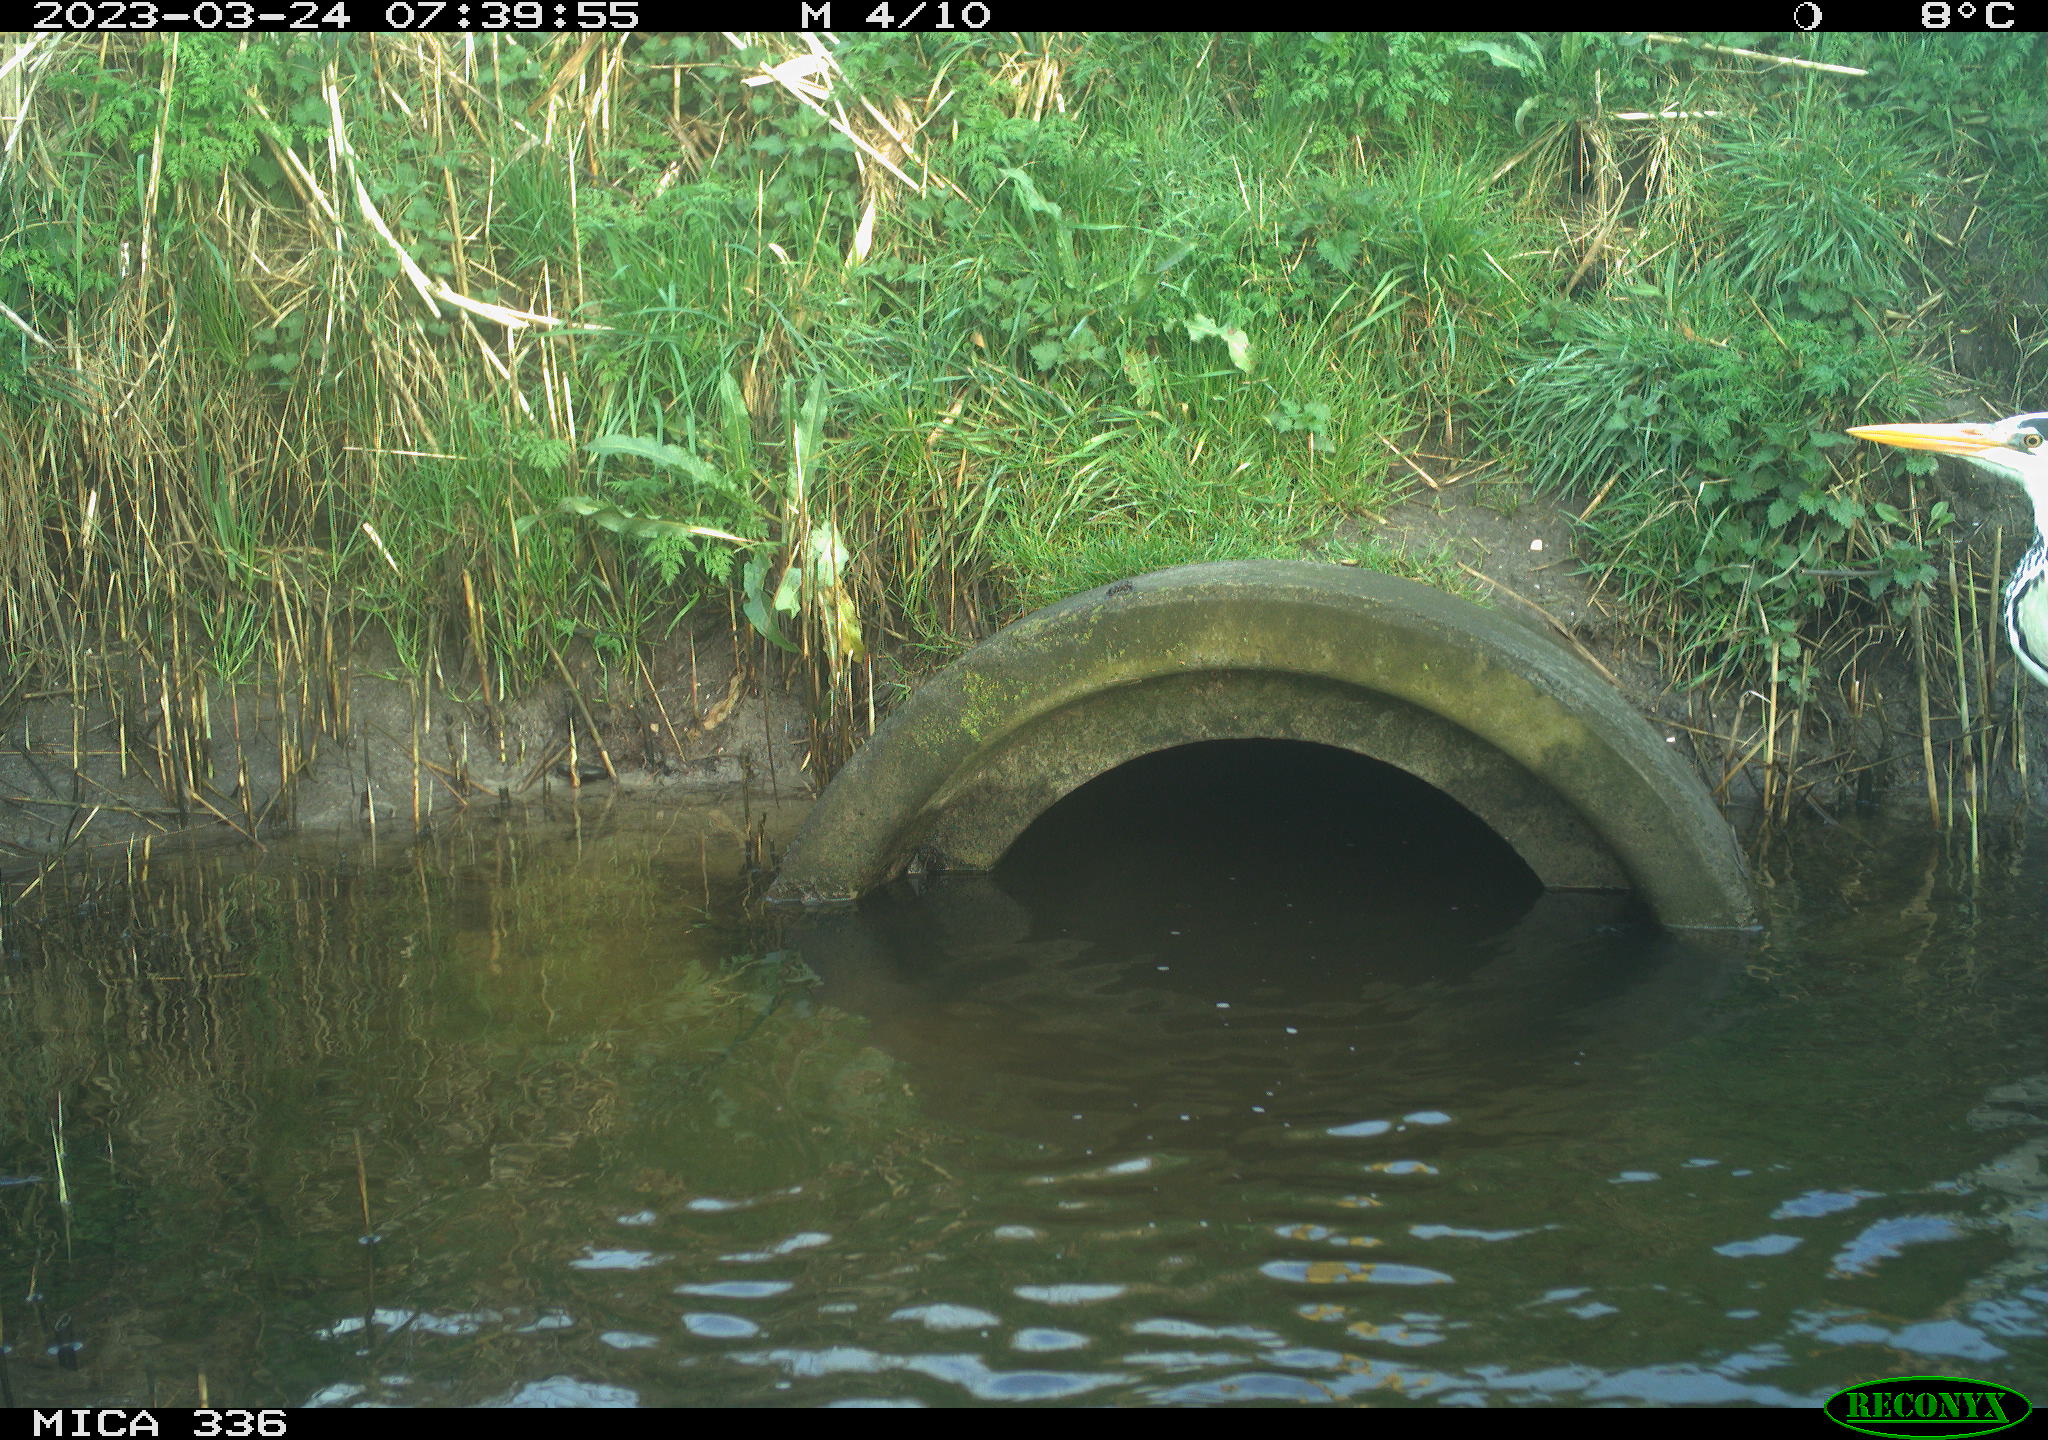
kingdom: Animalia
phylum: Chordata
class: Aves
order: Pelecaniformes
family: Ardeidae
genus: Ardea
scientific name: Ardea cinerea
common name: Grey heron
